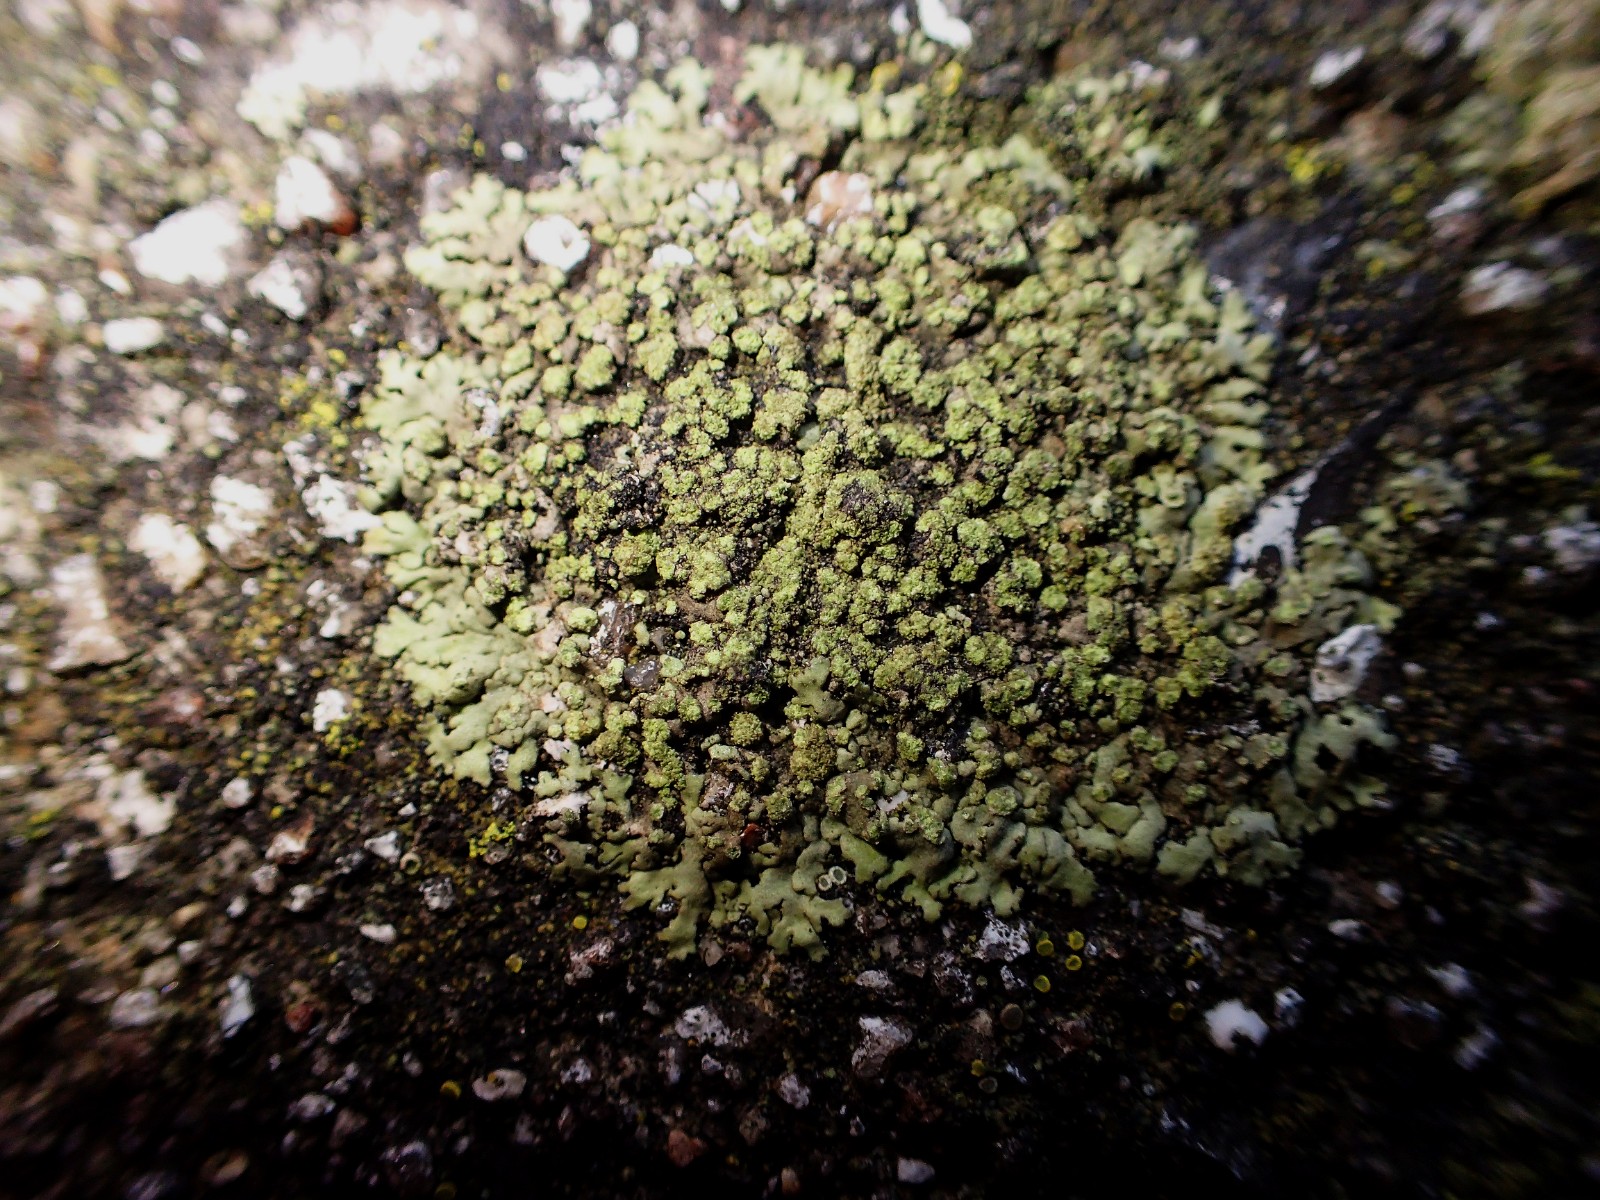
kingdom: Fungi
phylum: Ascomycota
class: Lecanoromycetes
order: Caliciales
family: Physciaceae
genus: Phaeophyscia
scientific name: Phaeophyscia orbicularis
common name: grågrøn rosetlav
